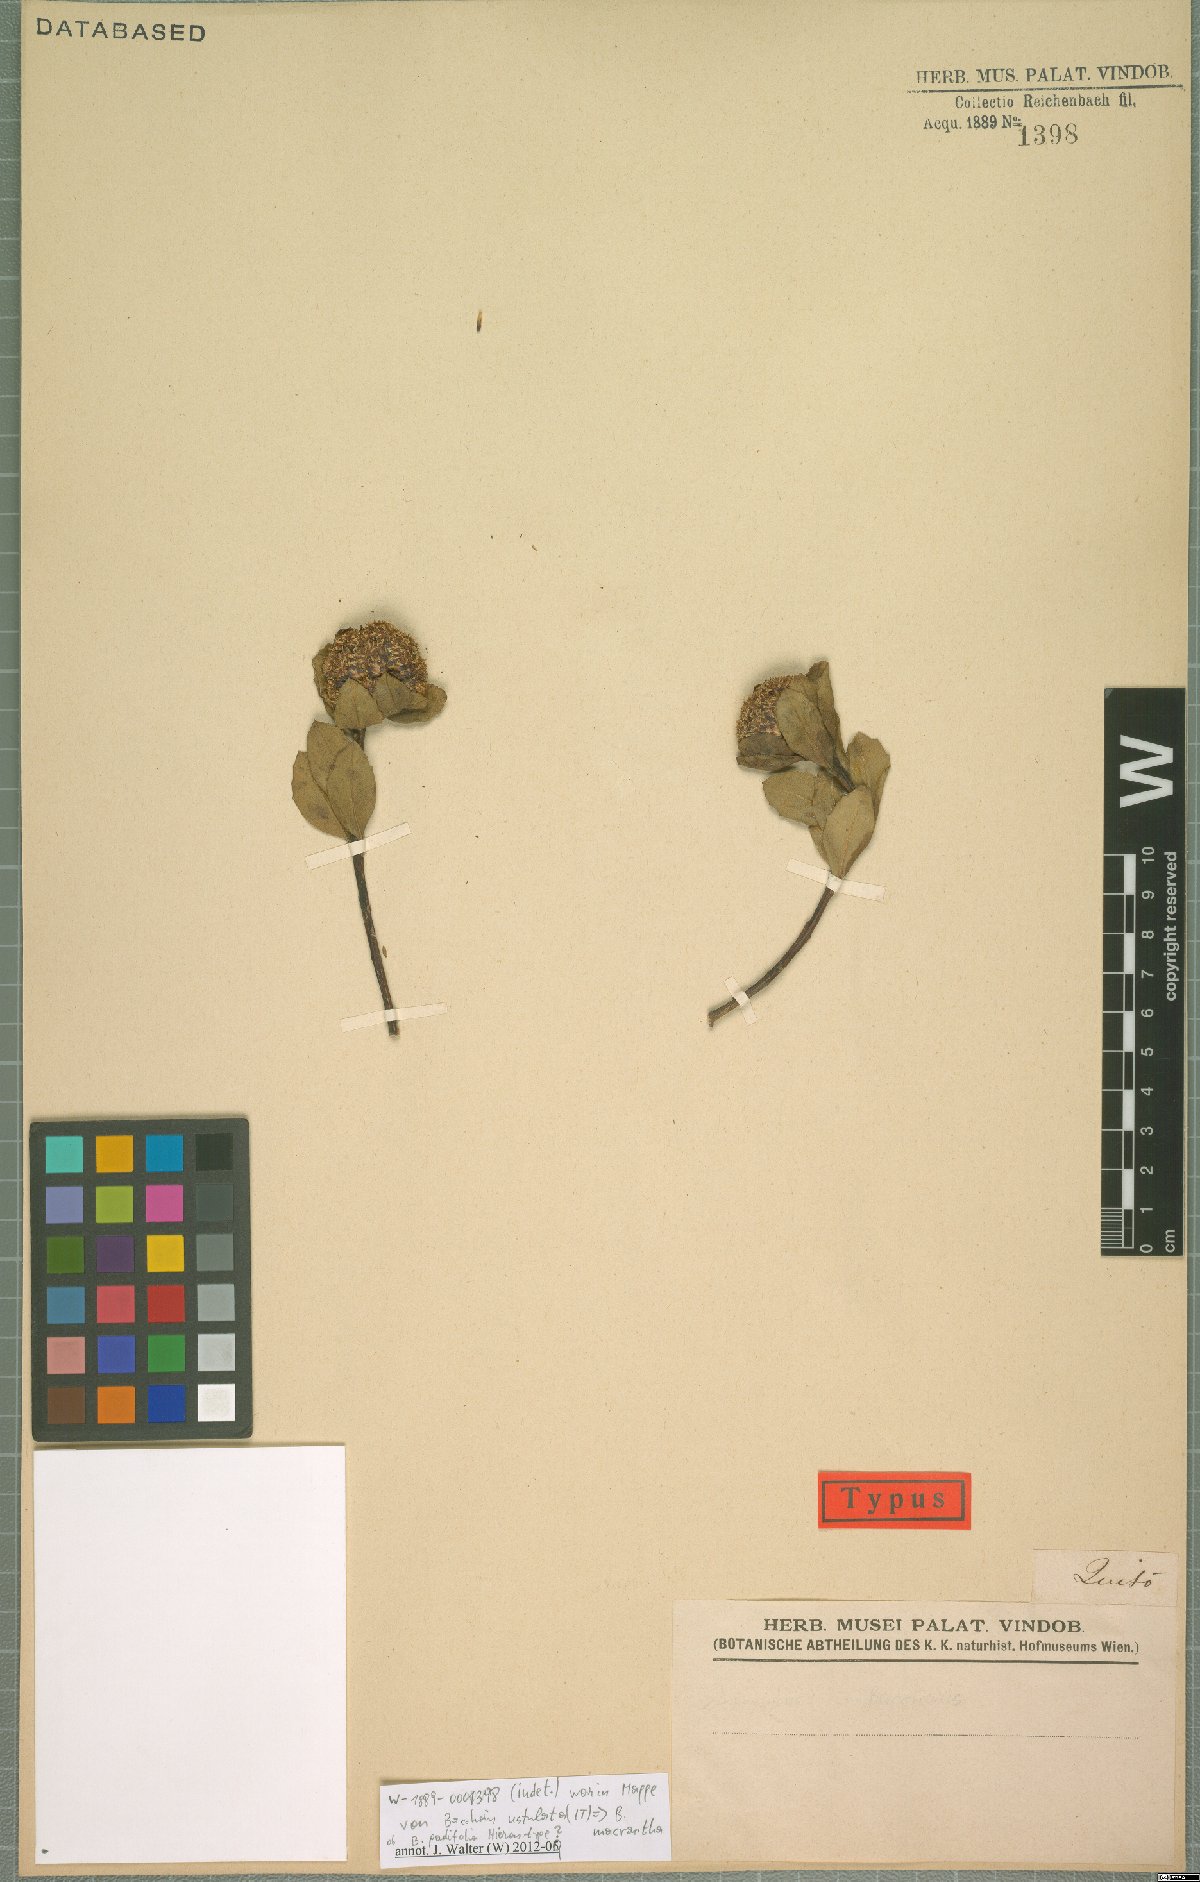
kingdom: Plantae
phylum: Tracheophyta
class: Magnoliopsida
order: Asterales
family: Asteraceae
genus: Baccharis
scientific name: Baccharis macrantha
